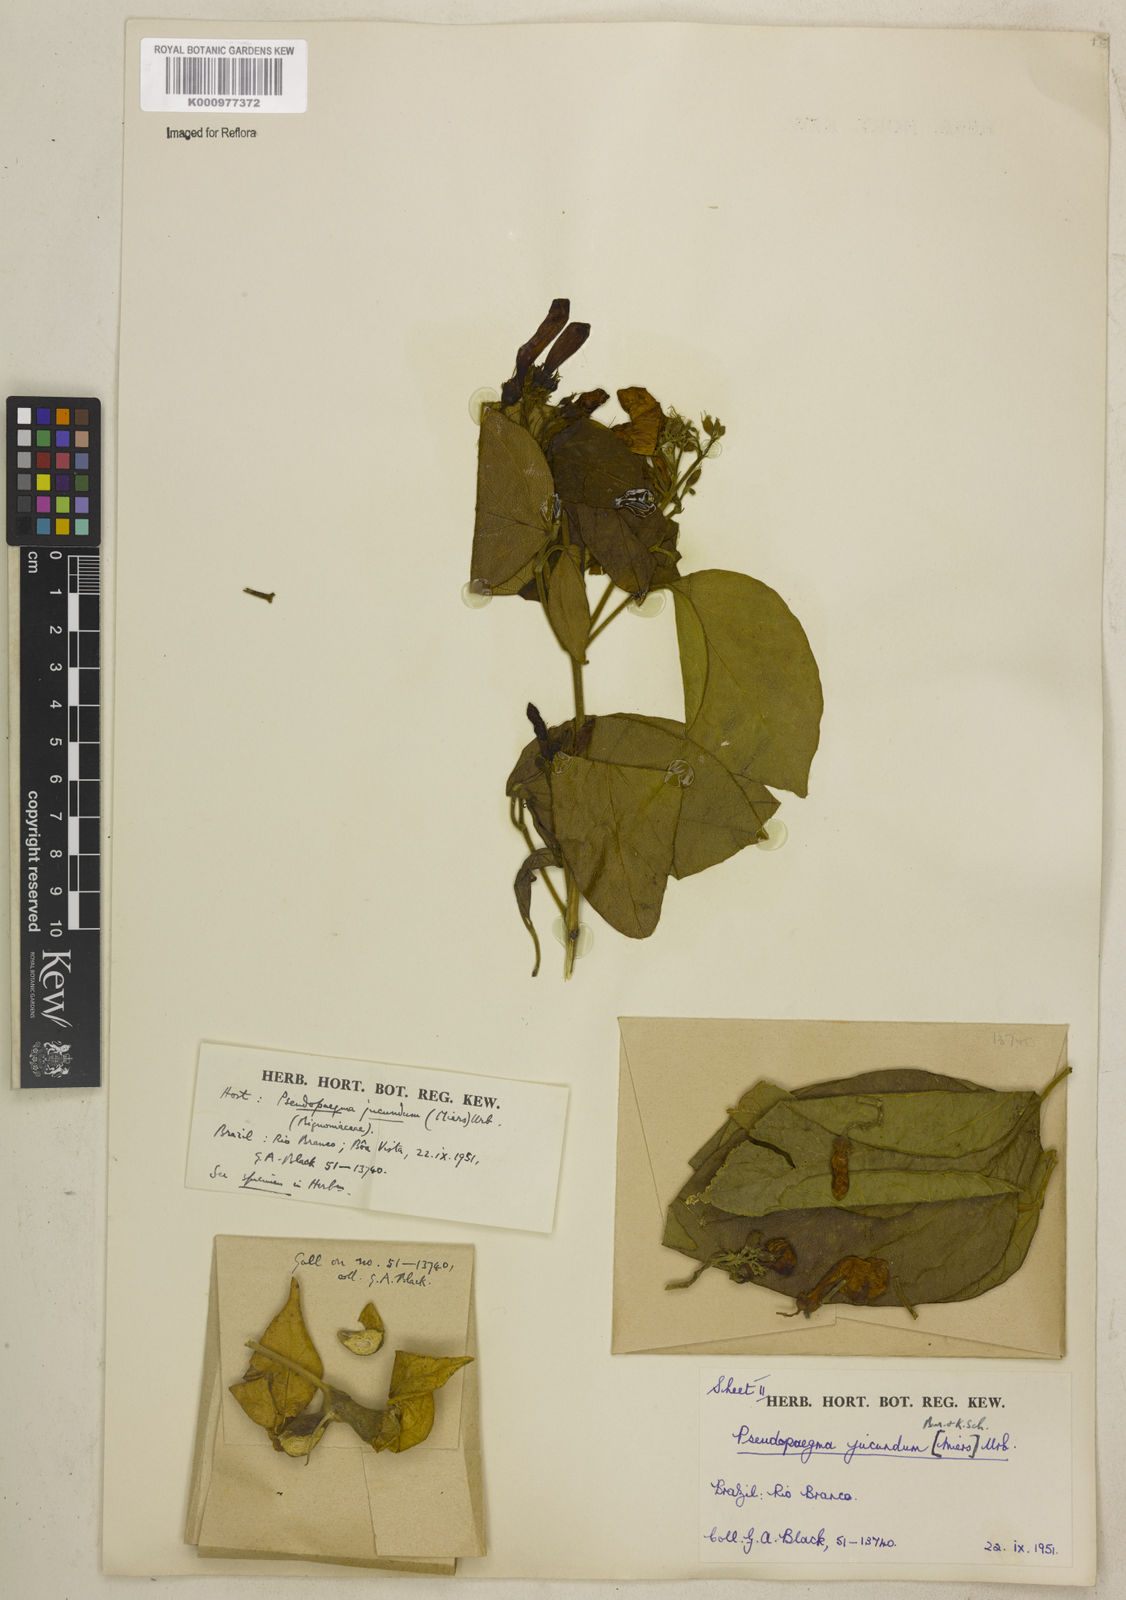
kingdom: Plantae
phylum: Tracheophyta
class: Magnoliopsida
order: Lamiales
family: Bignoniaceae
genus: Anemopaegma
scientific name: Anemopaegma jucundum
